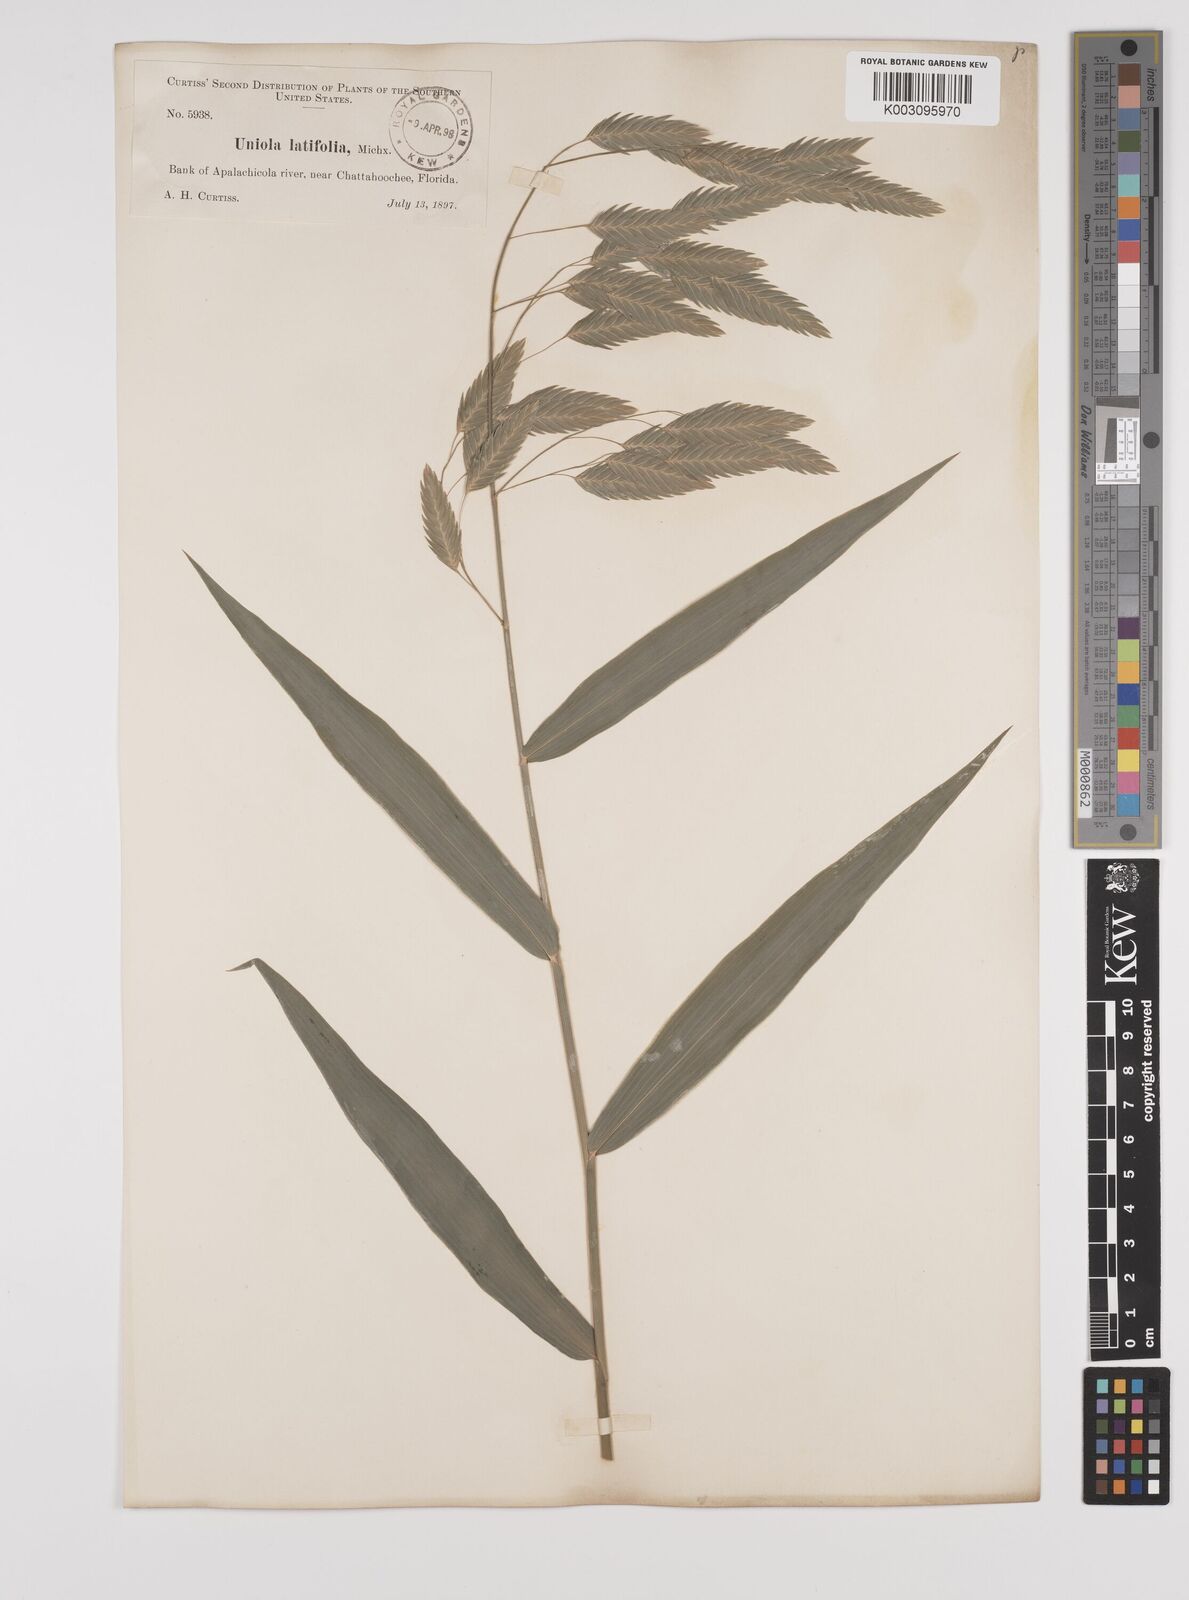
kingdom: Plantae
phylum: Tracheophyta
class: Liliopsida
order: Poales
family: Poaceae
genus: Chasmanthium
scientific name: Chasmanthium latifolium
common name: Broad-leaved chasmanthium
